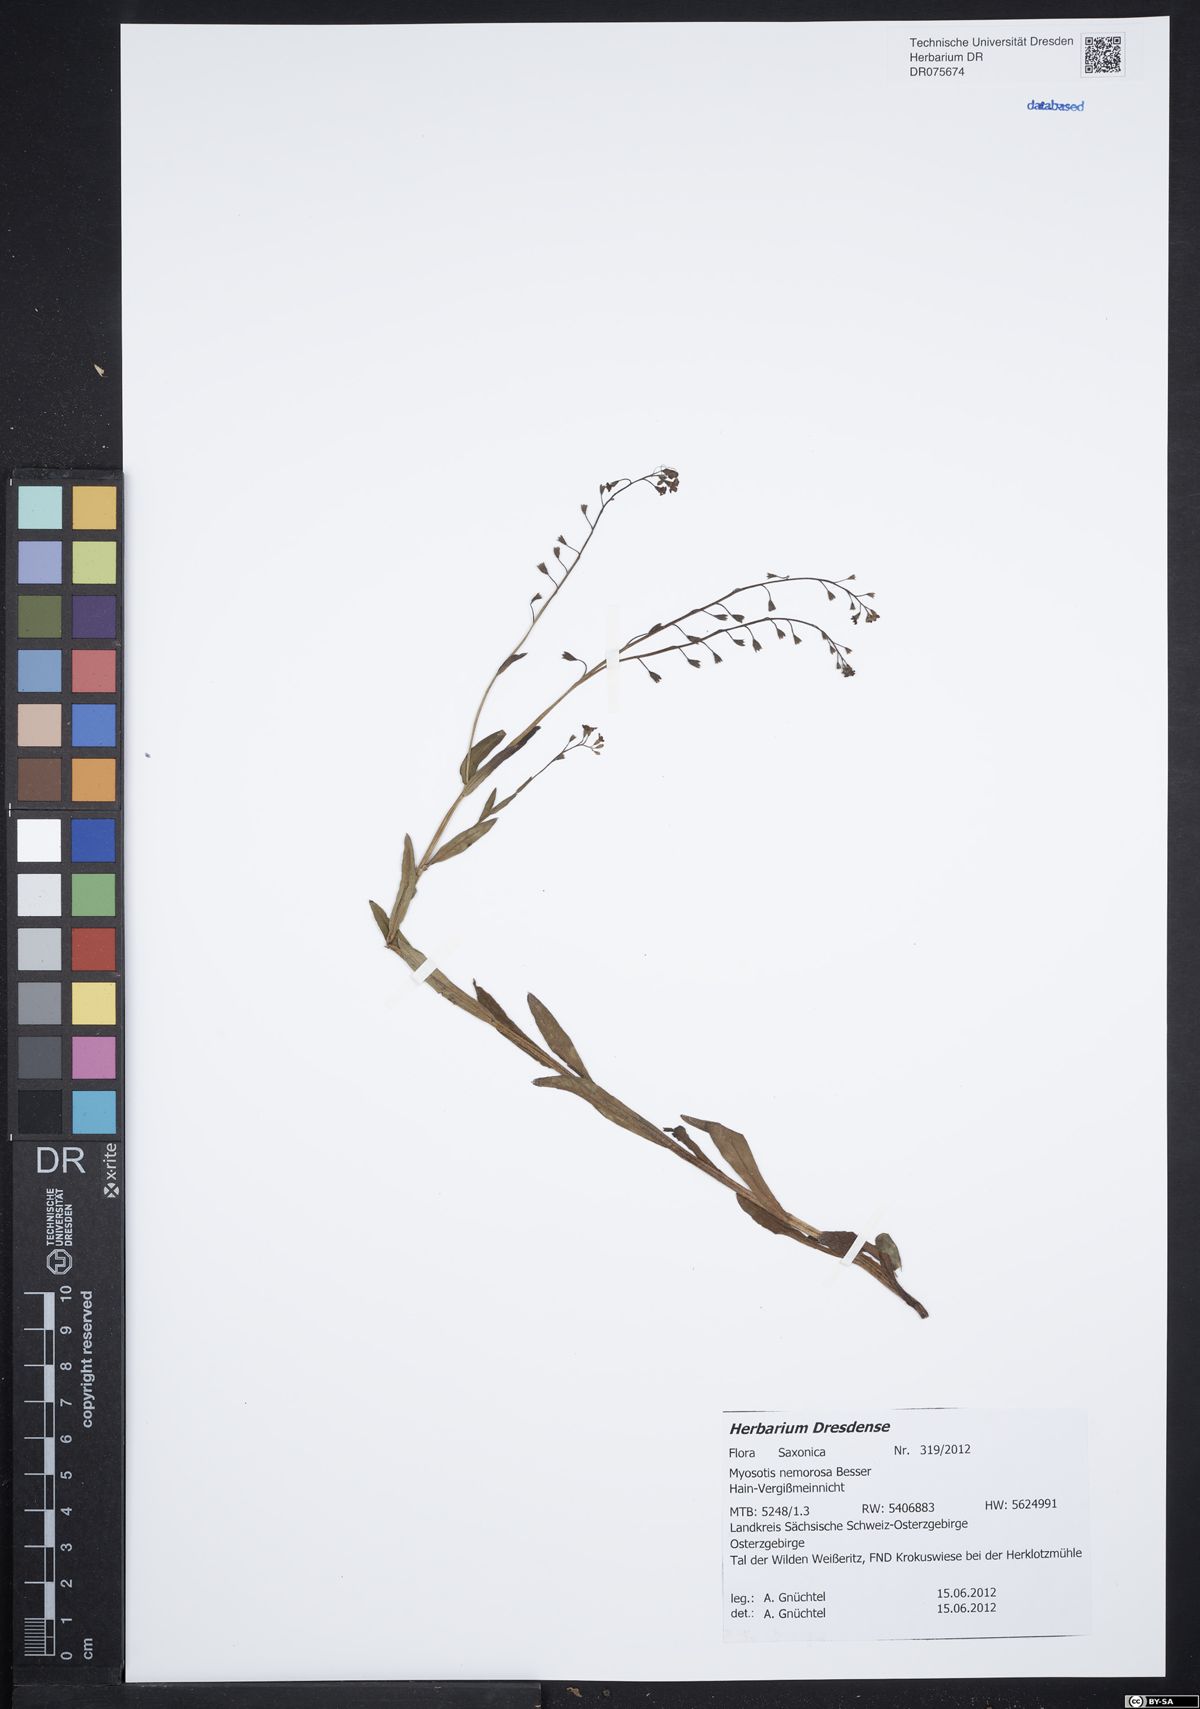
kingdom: Plantae
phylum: Tracheophyta
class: Magnoliopsida
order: Boraginales
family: Boraginaceae
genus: Myosotis
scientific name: Myosotis nemorosa
